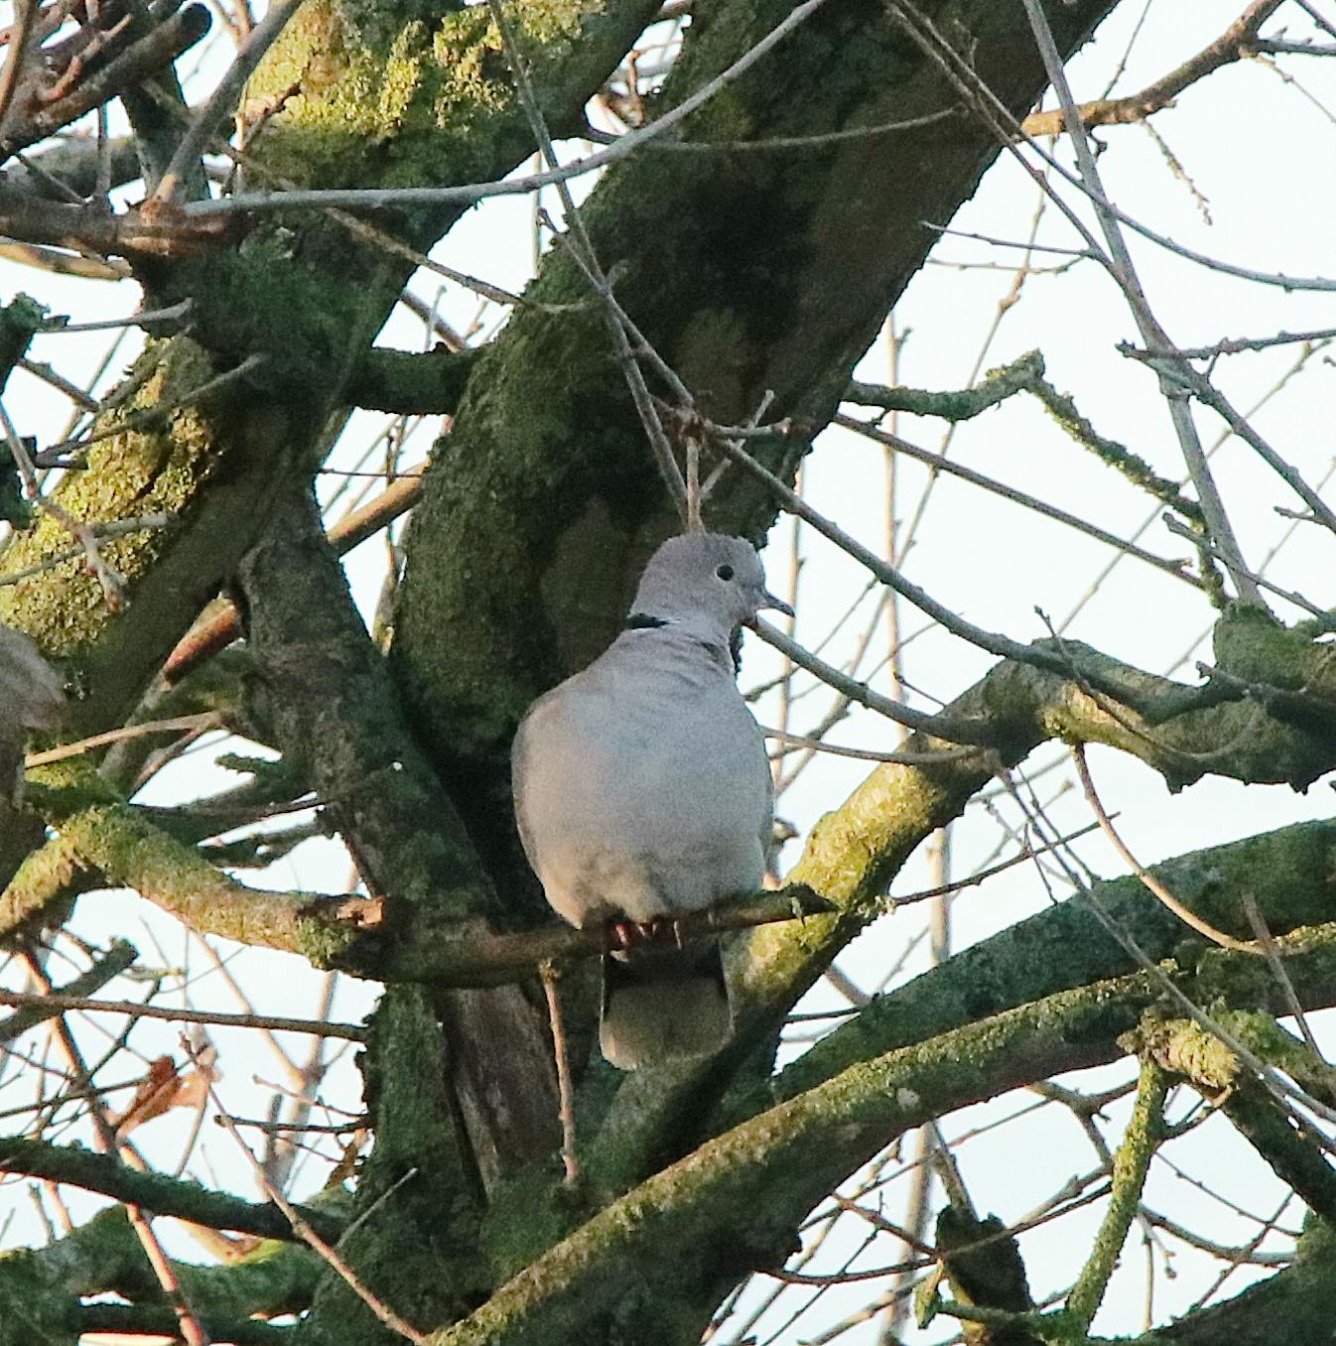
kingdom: Animalia
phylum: Chordata
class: Aves
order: Columbiformes
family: Columbidae
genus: Streptopelia
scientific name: Streptopelia decaocto
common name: Tyrkerdue
